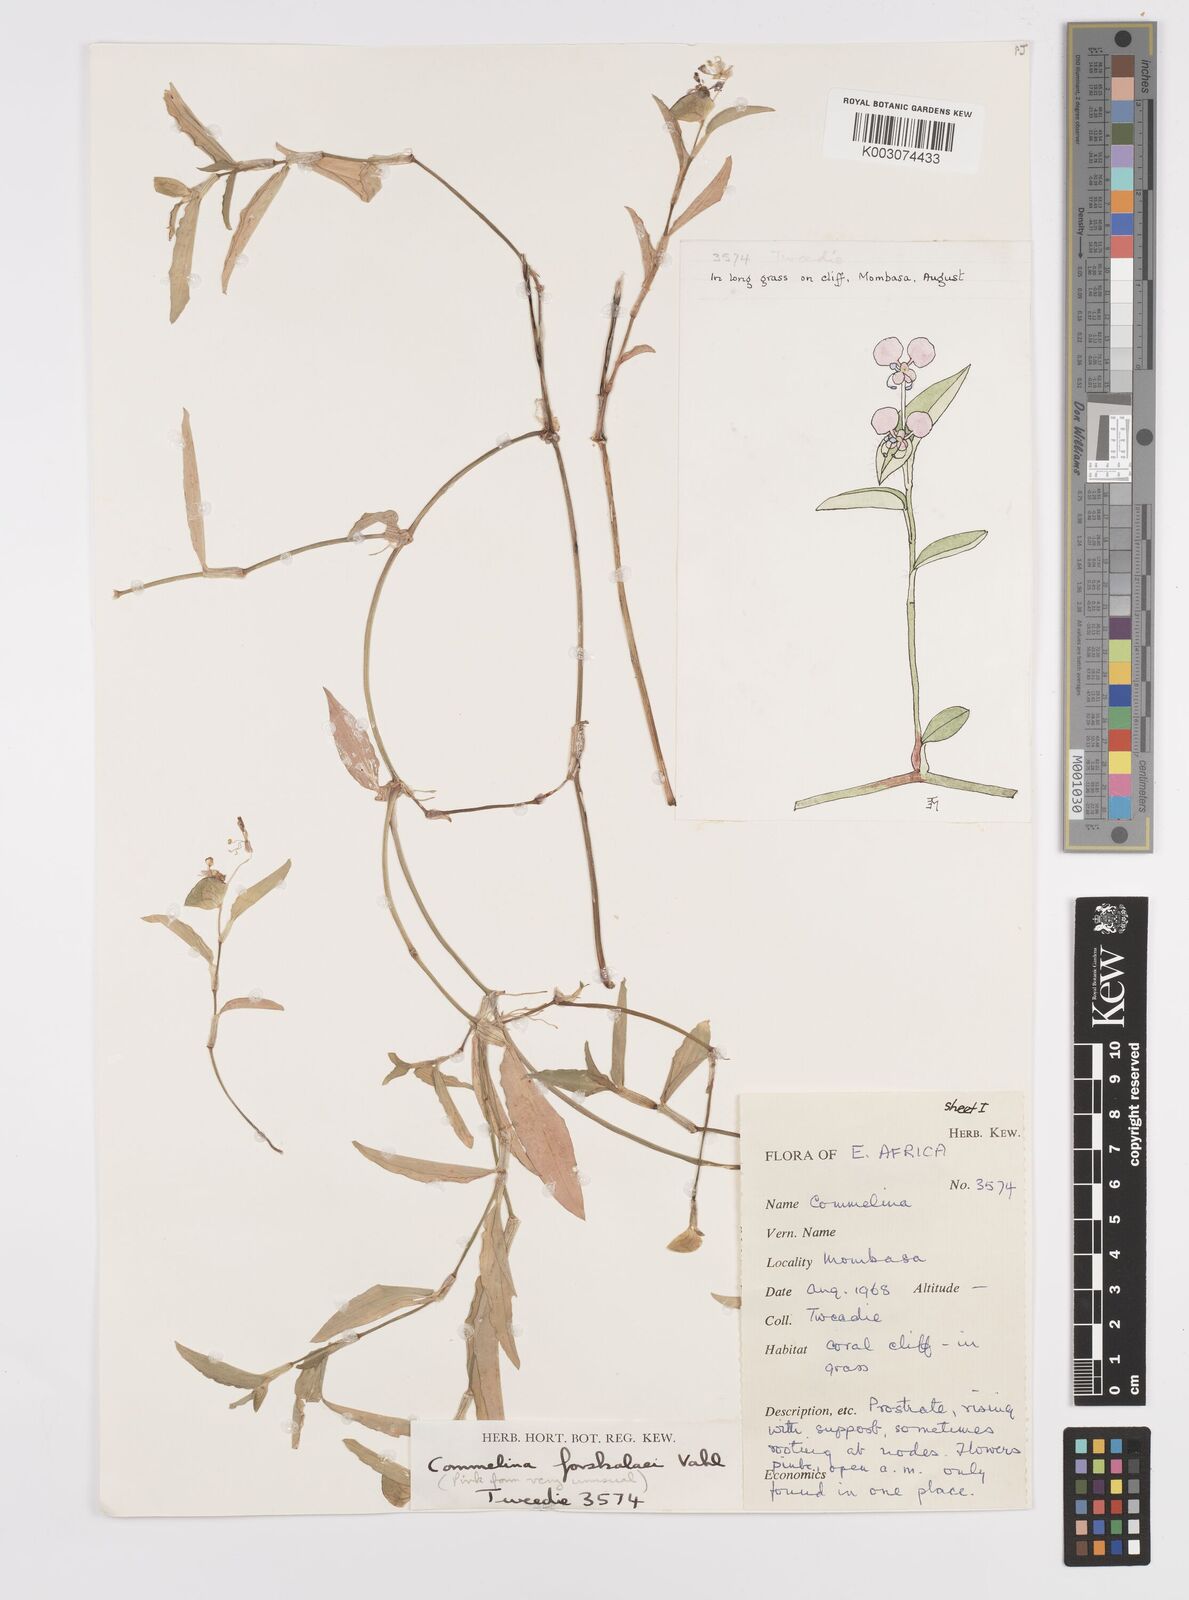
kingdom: Plantae
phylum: Tracheophyta
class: Liliopsida
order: Commelinales
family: Commelinaceae
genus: Commelina
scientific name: Commelina forskaolii
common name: Rat's ear
